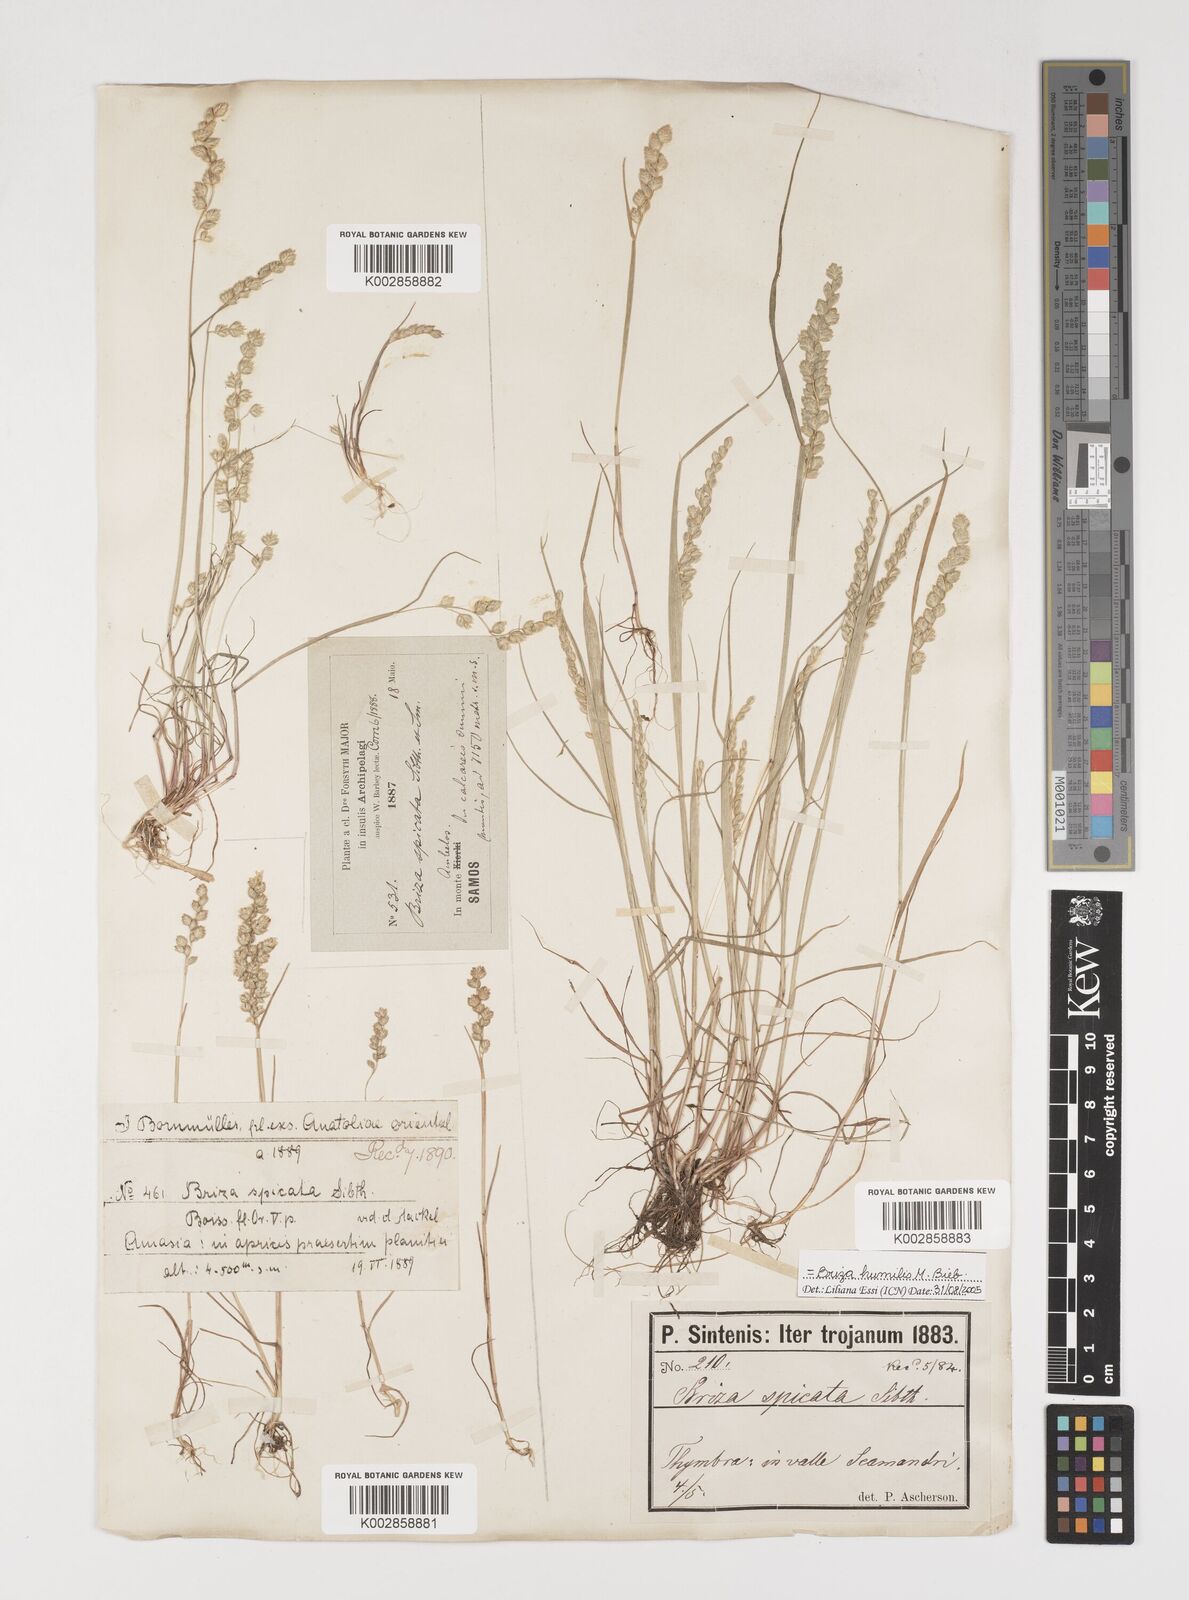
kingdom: Plantae
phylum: Tracheophyta
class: Liliopsida
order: Poales
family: Poaceae
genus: Briza
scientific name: Briza humilis
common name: Spiked quaking grass
